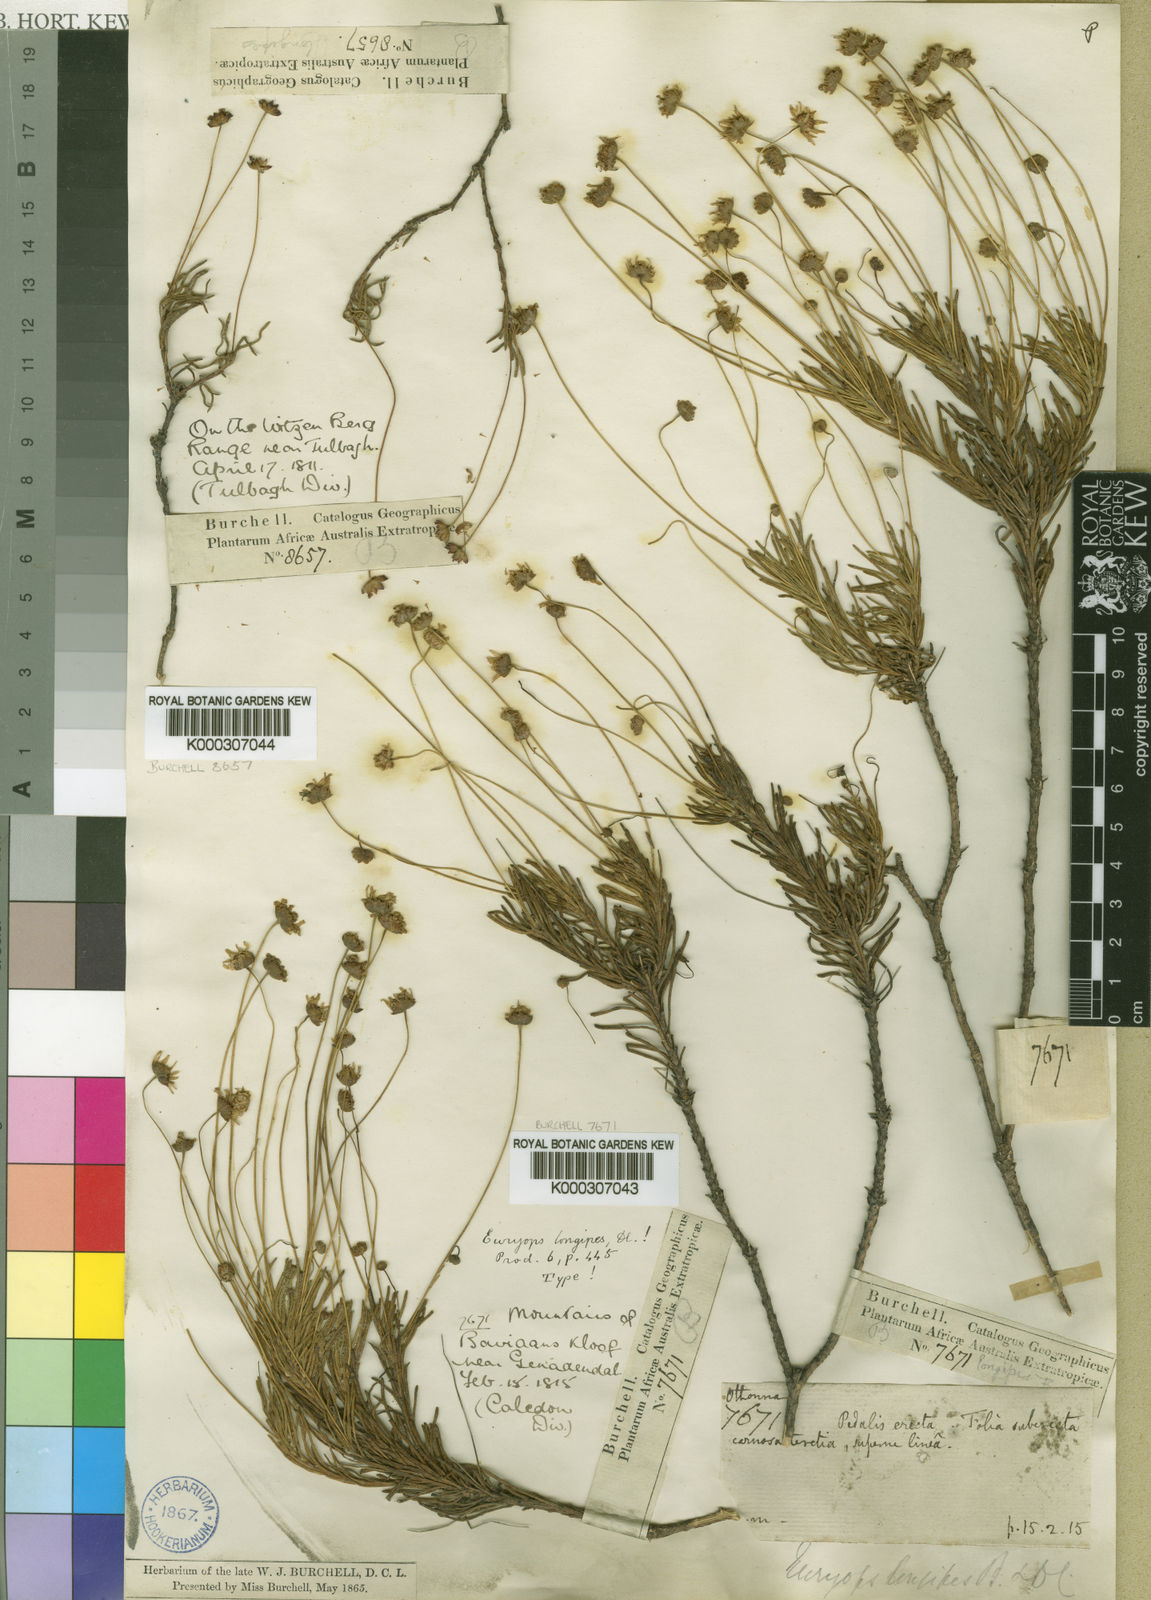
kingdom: Plantae
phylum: Tracheophyta
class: Magnoliopsida
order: Asterales
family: Asteraceae
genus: Euryops
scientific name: Euryops longipes
